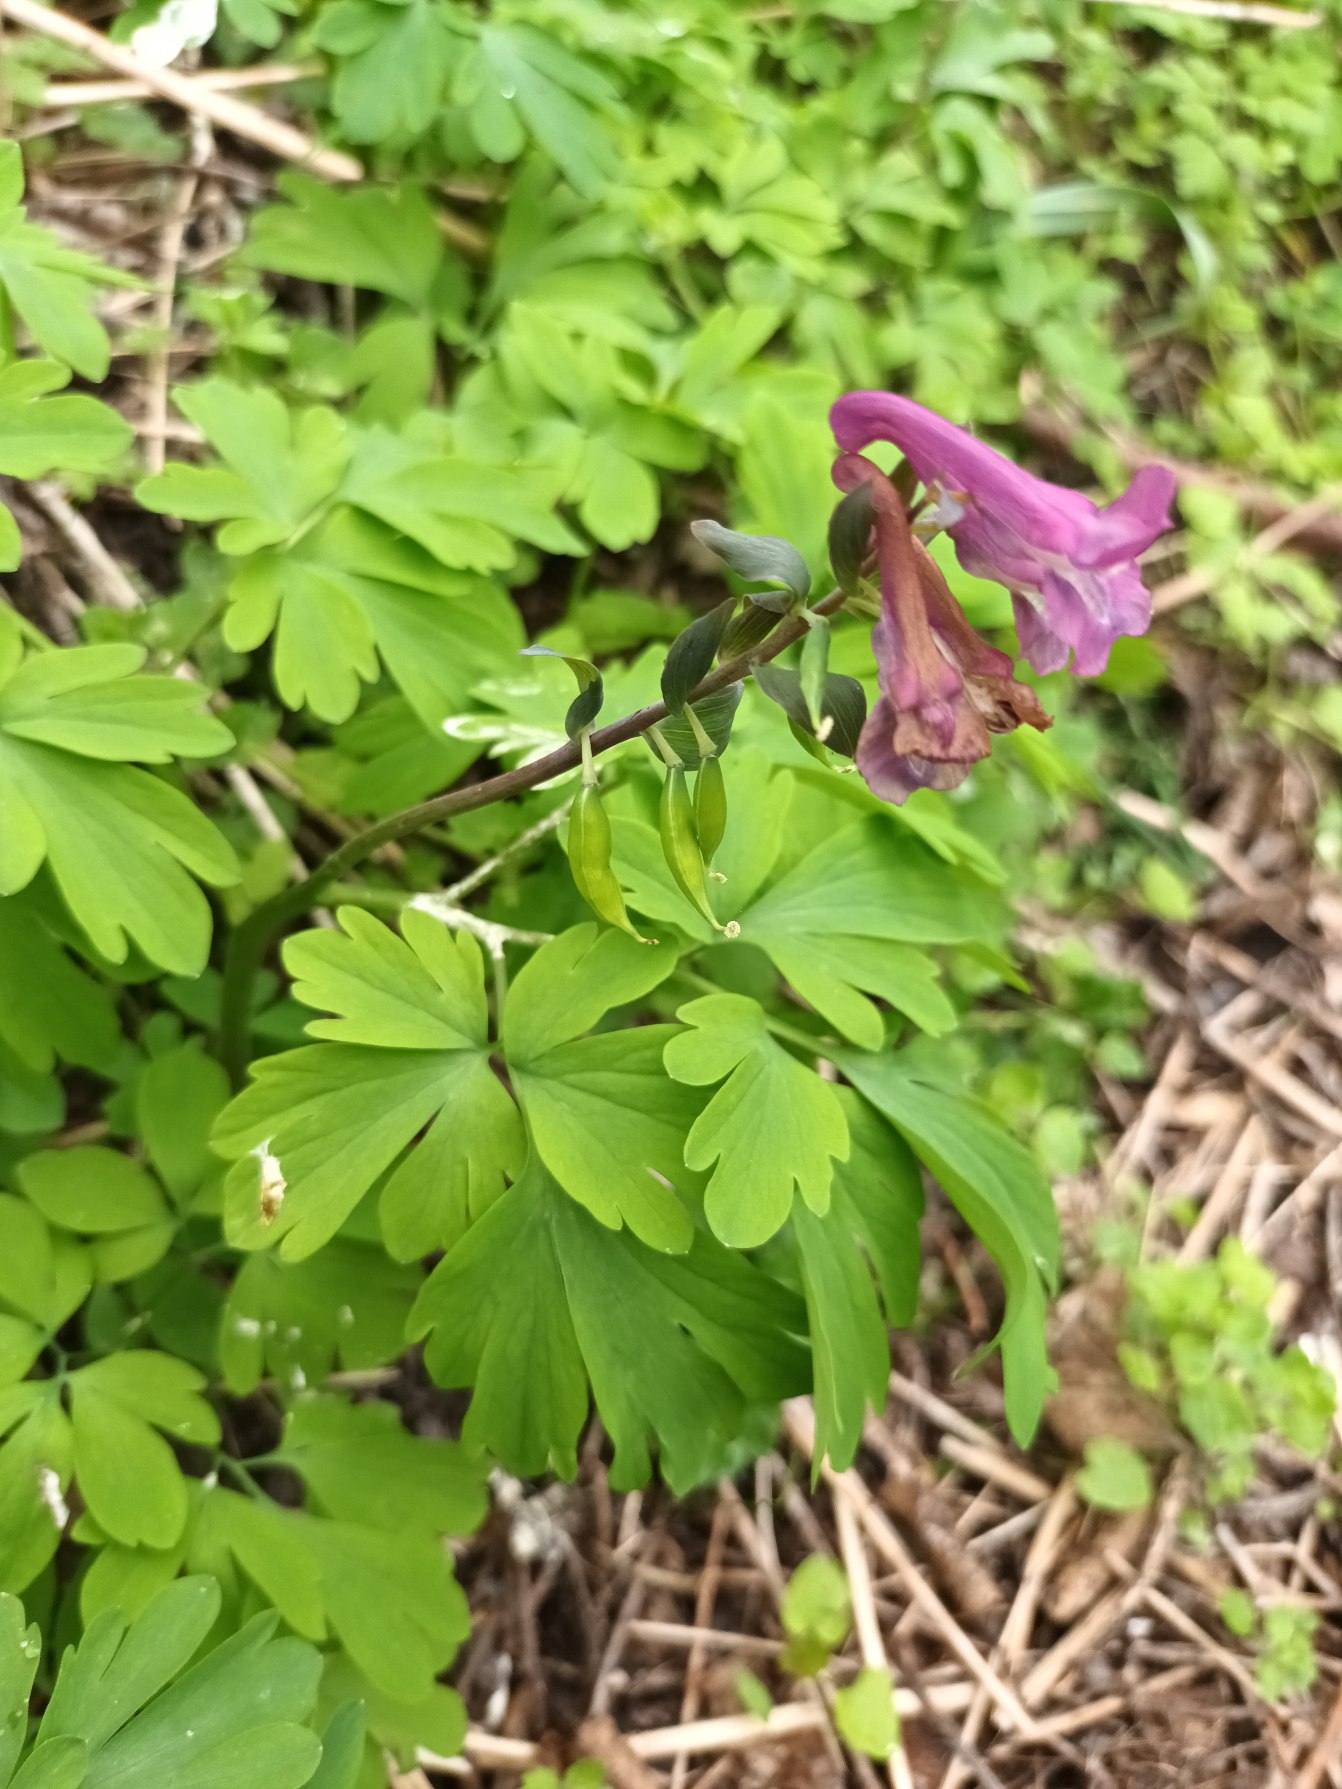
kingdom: Plantae
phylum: Tracheophyta
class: Magnoliopsida
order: Ranunculales
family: Papaveraceae
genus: Corydalis
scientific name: Corydalis cava
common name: Hulrodet lærkespore
